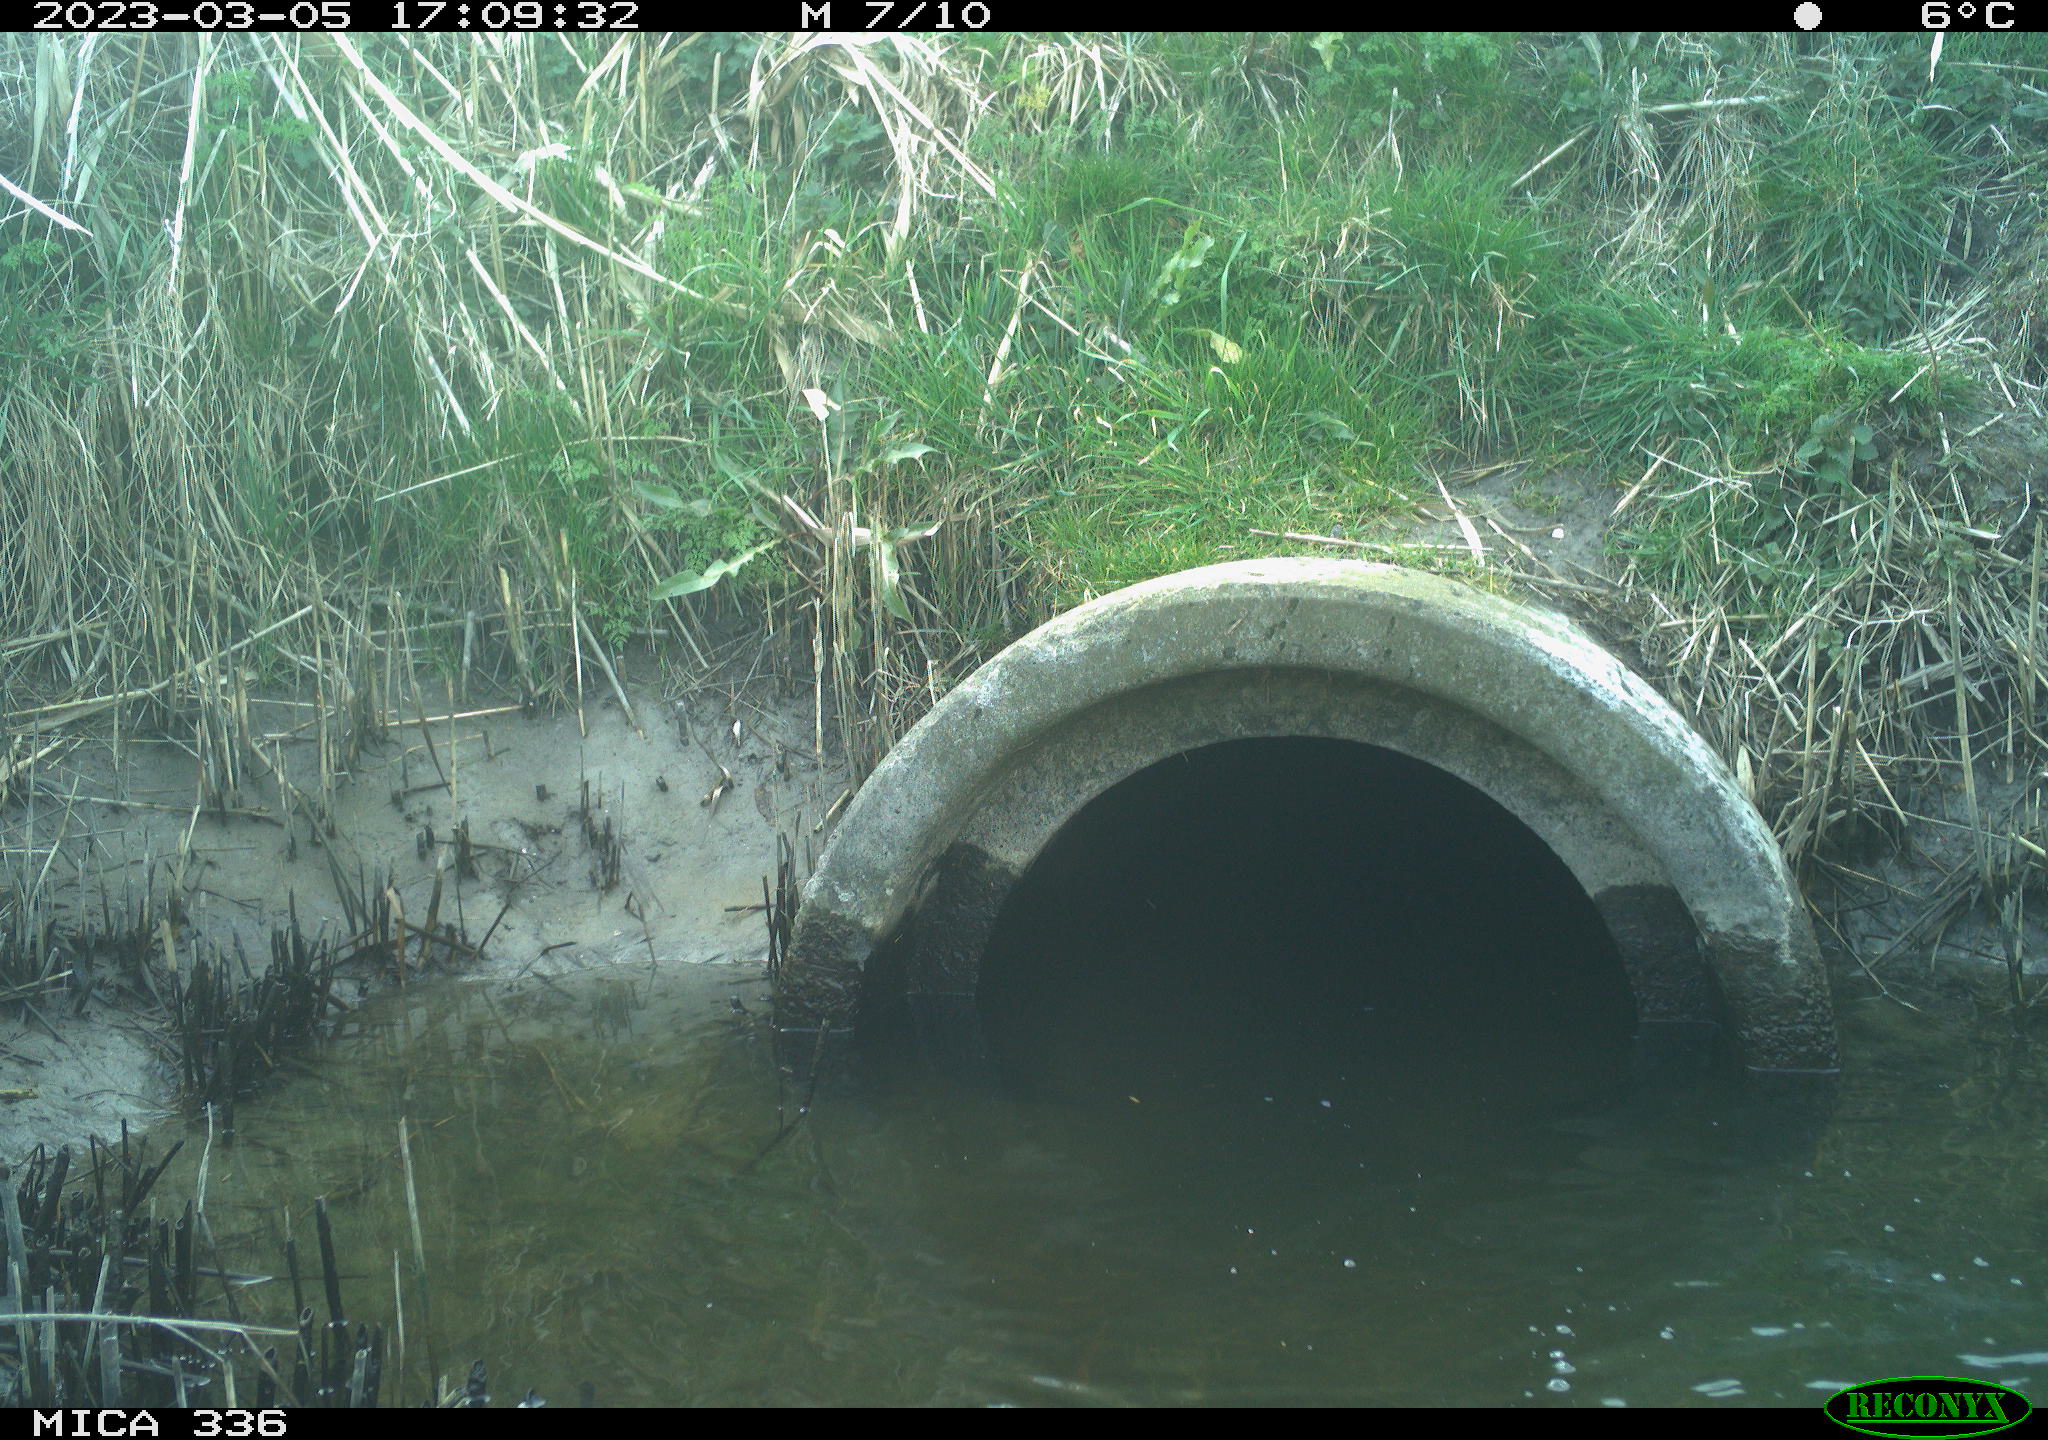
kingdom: Animalia
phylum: Chordata
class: Aves
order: Pelecaniformes
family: Ardeidae
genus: Ardea
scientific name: Ardea cinerea
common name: Grey heron
